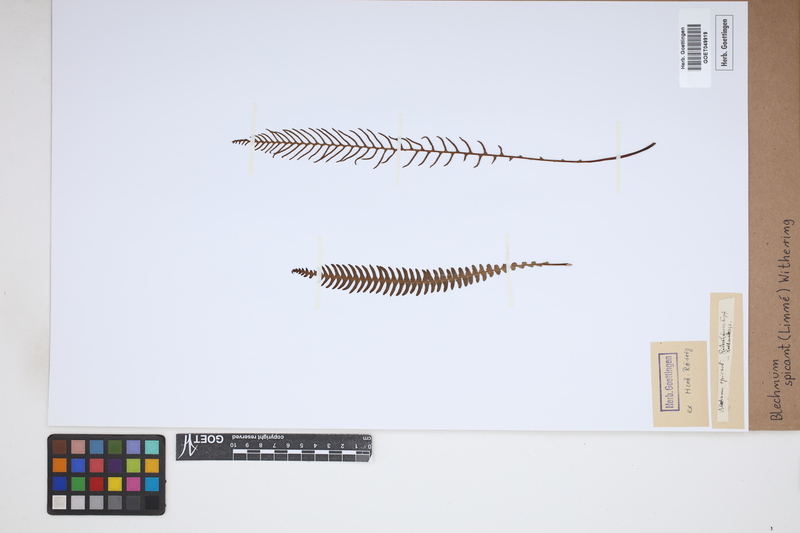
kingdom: Plantae
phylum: Tracheophyta
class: Polypodiopsida
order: Polypodiales
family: Blechnaceae
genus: Struthiopteris
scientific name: Struthiopteris spicant
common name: Deer fern
